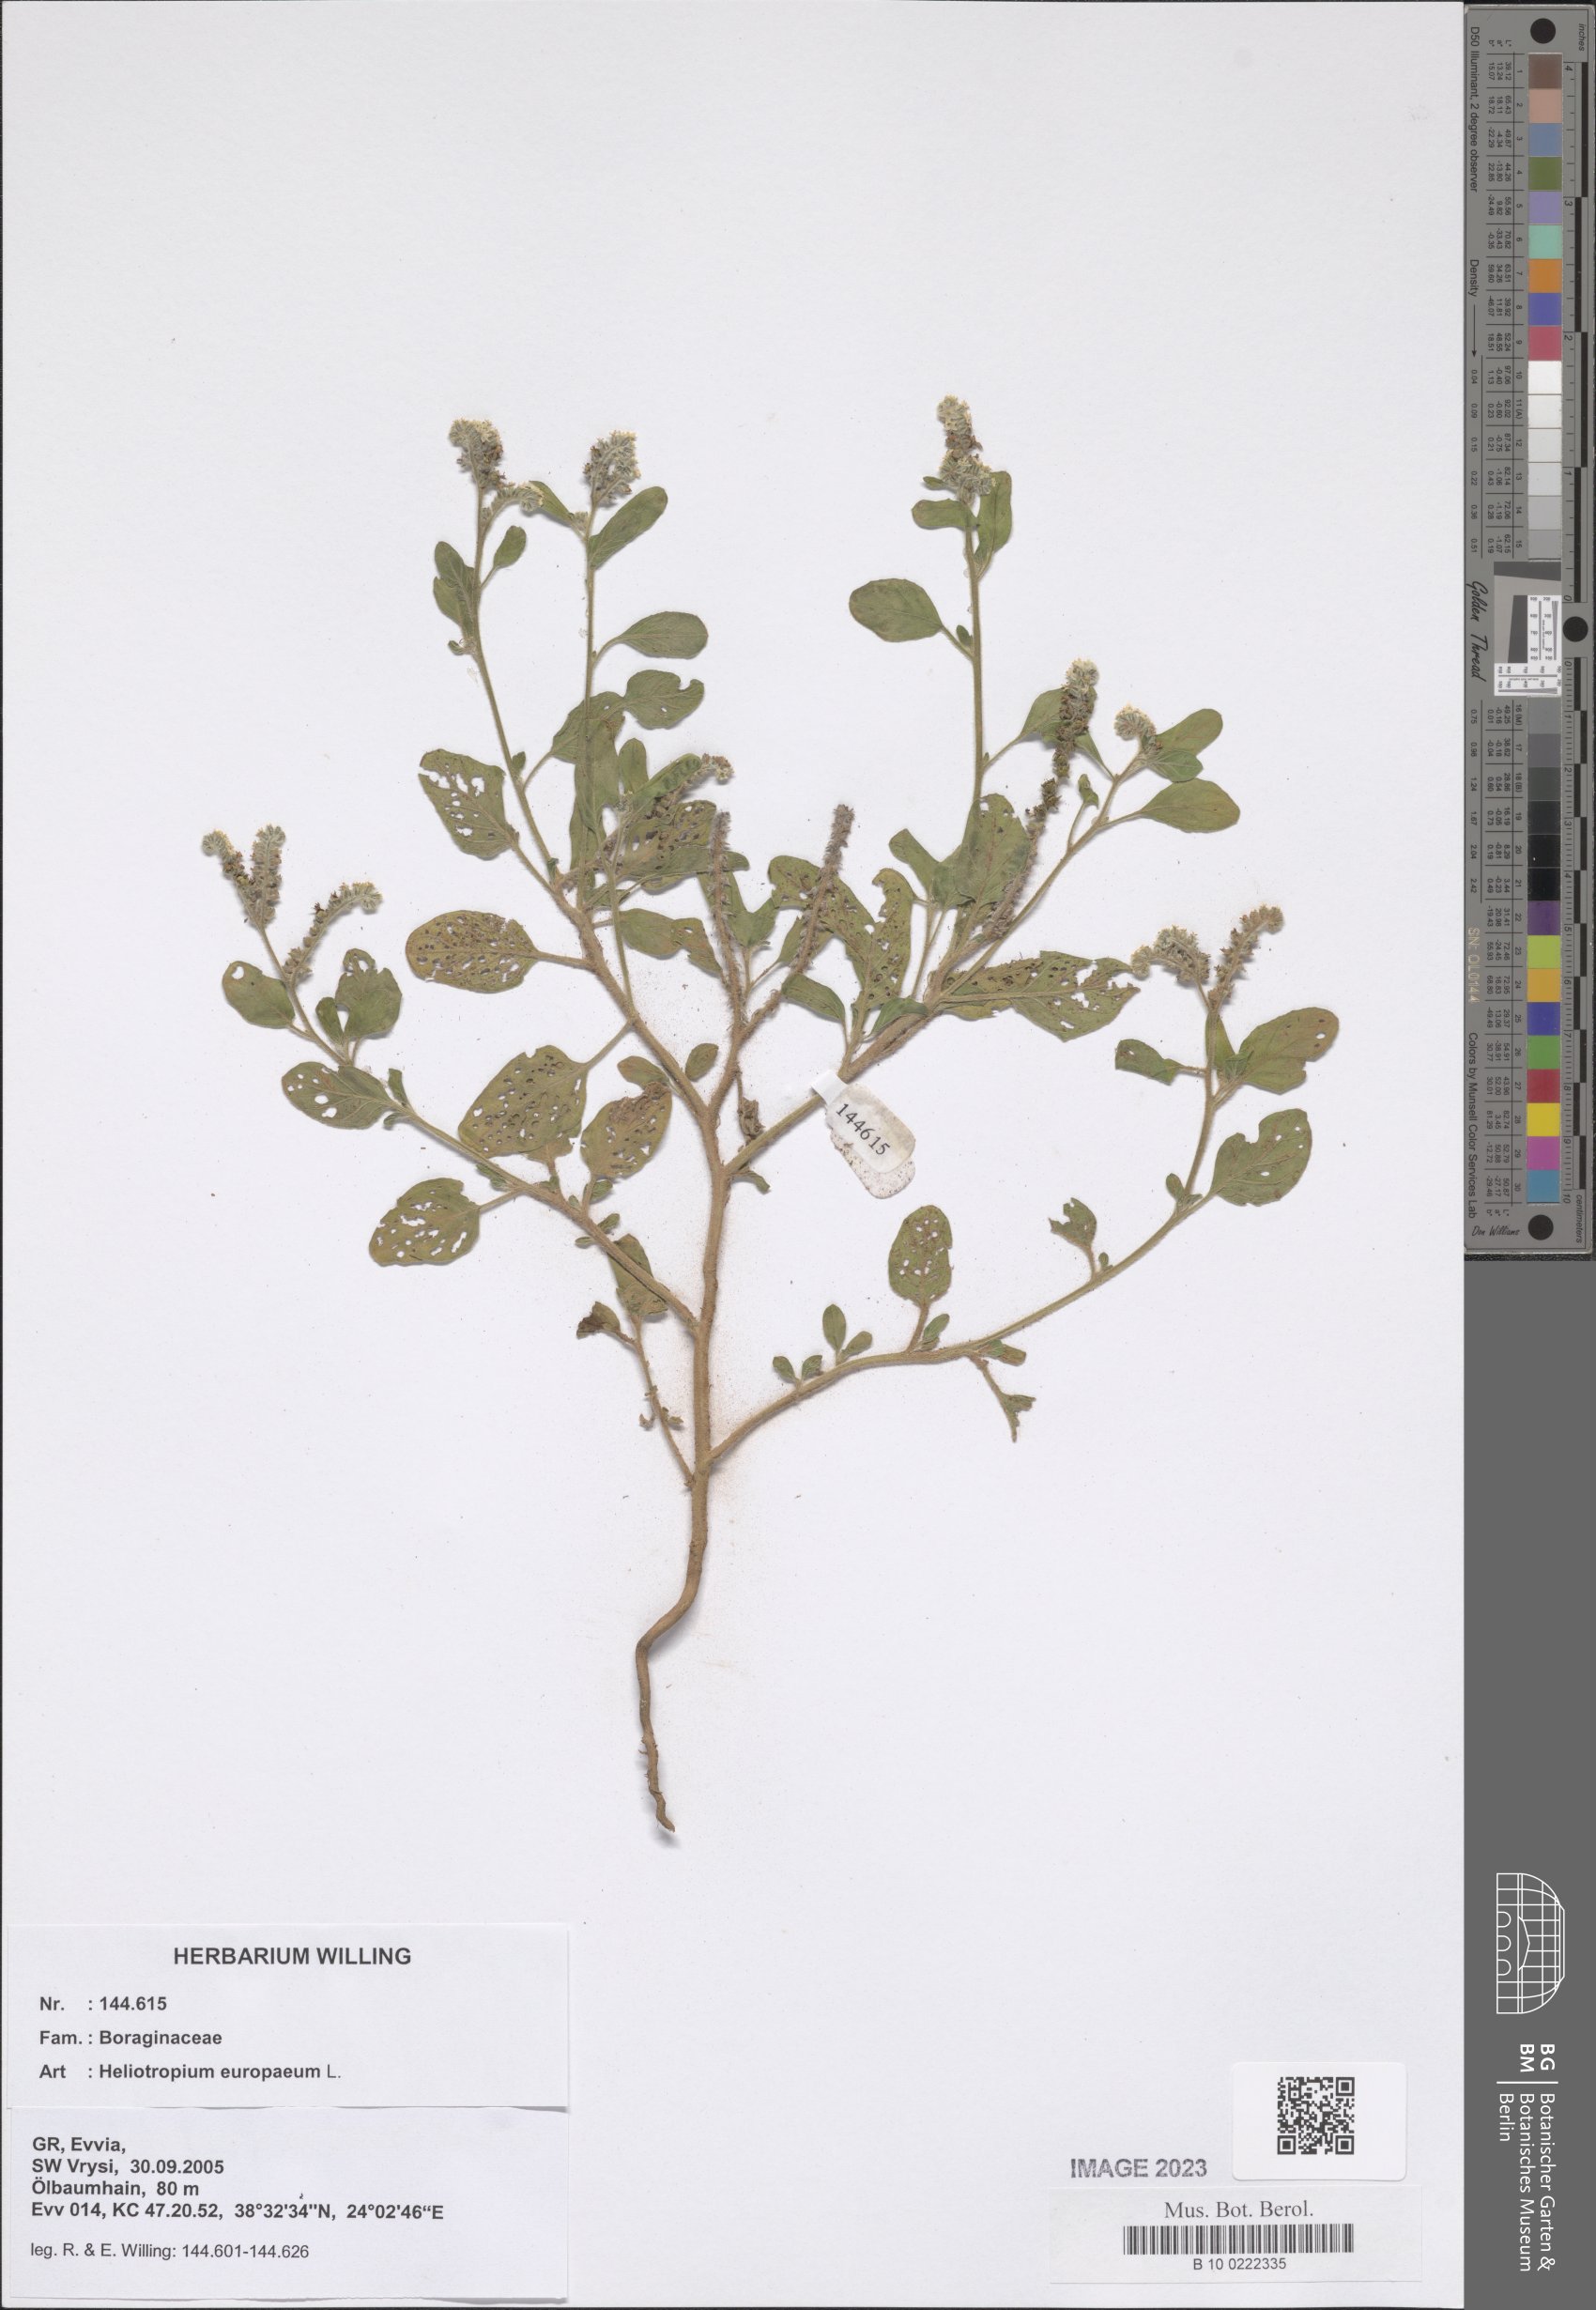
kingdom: Plantae
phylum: Tracheophyta
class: Magnoliopsida
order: Boraginales
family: Heliotropiaceae
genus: Heliotropium
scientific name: Heliotropium europaeum
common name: European heliotrope
